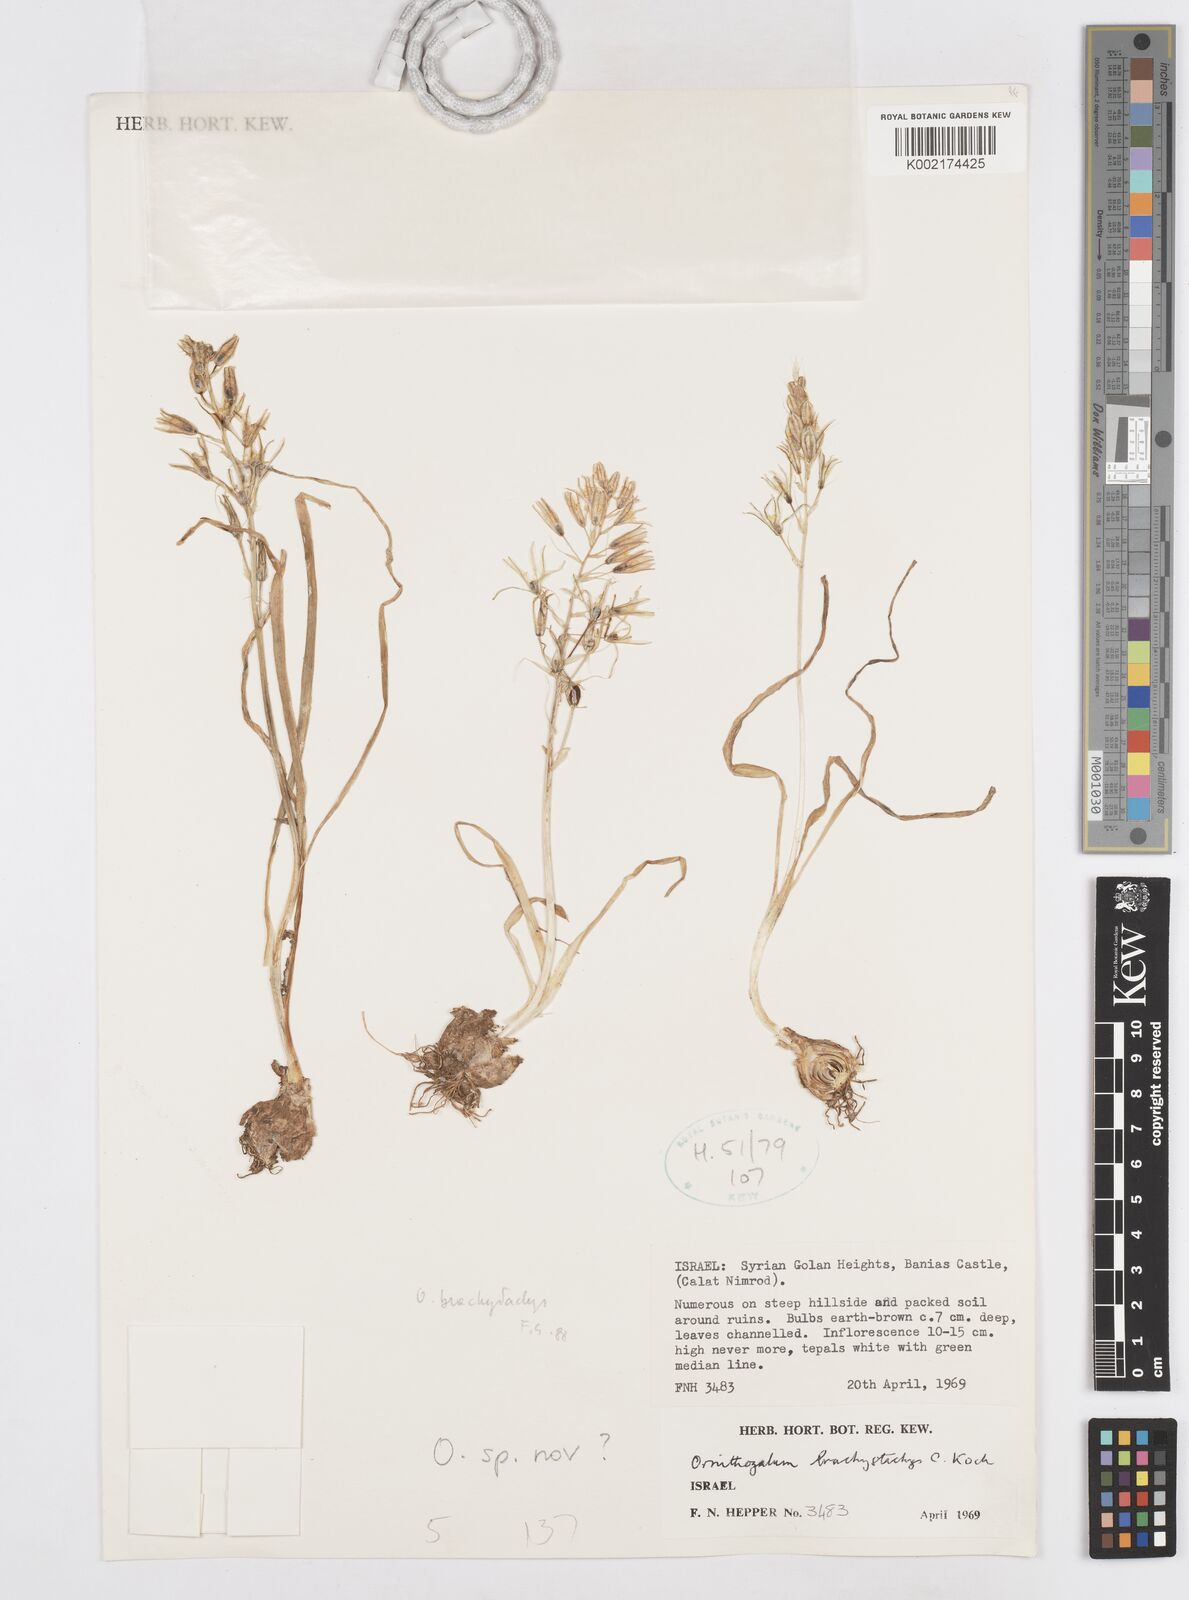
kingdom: Plantae
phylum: Tracheophyta
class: Liliopsida
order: Asparagales
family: Asparagaceae
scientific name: Asparagaceae
